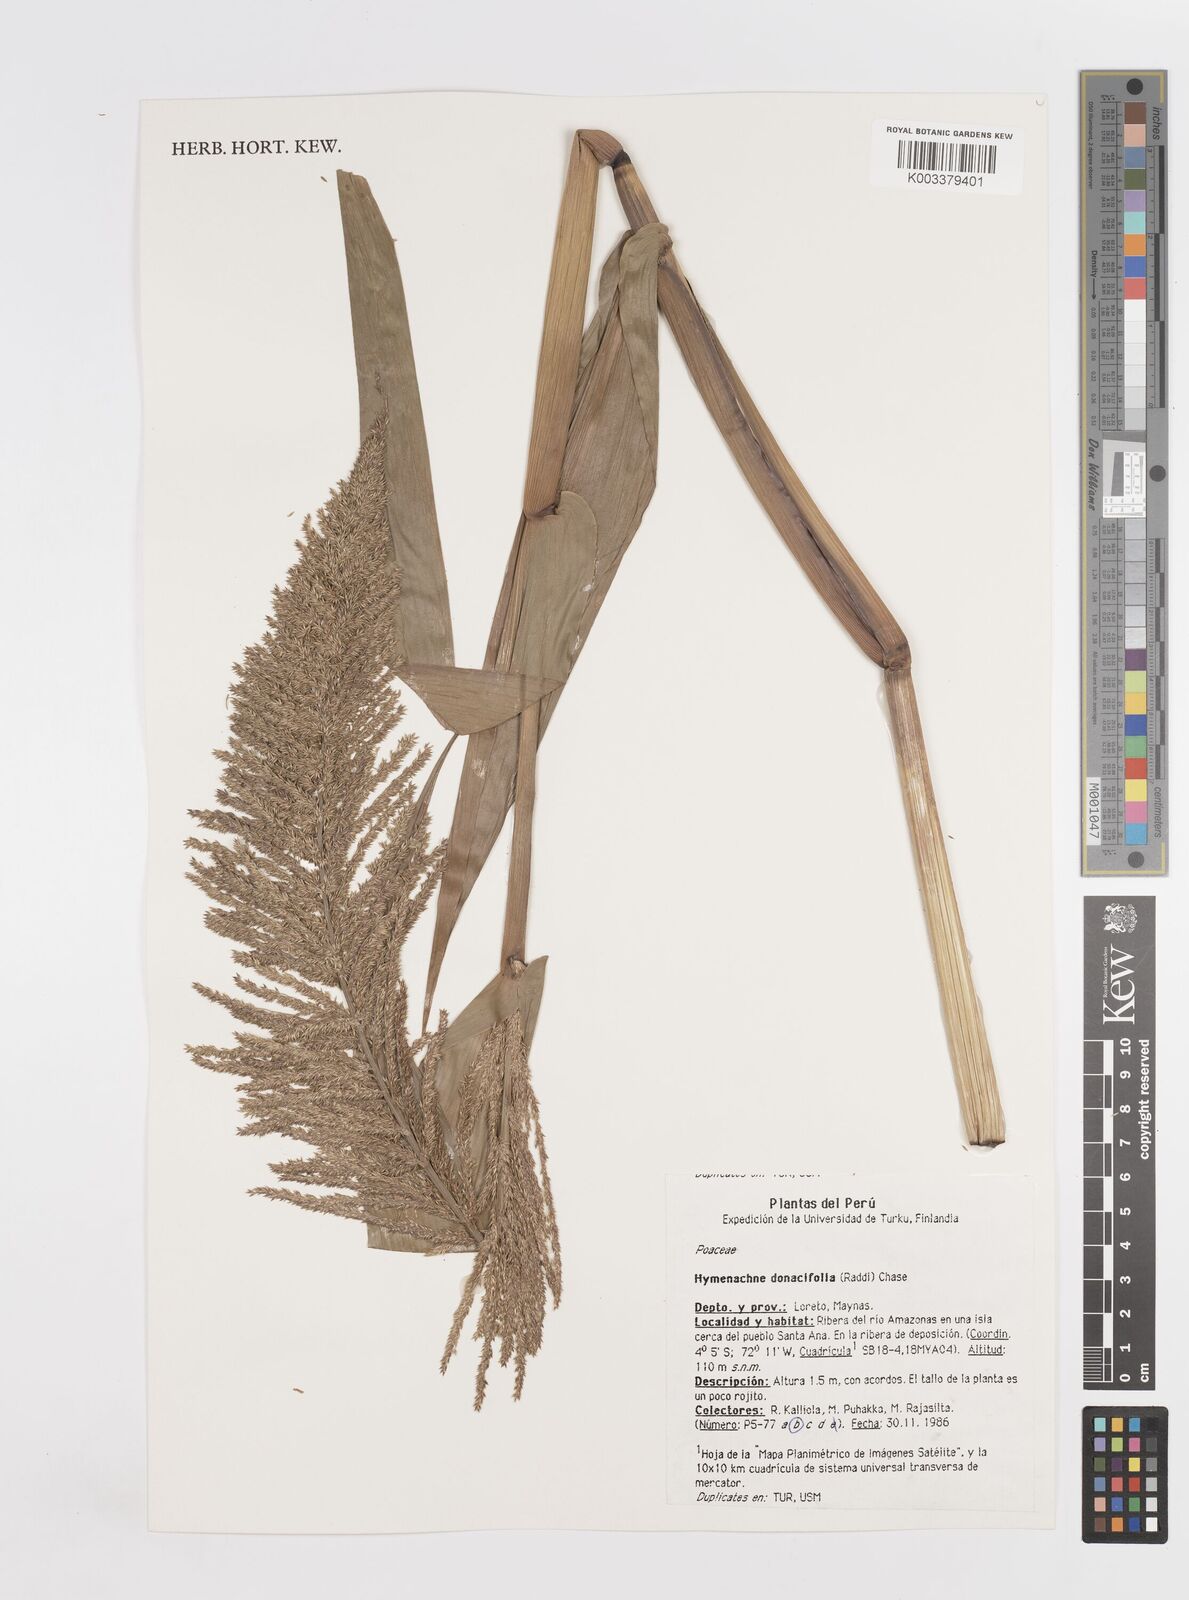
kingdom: Plantae
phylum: Tracheophyta
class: Liliopsida
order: Poales
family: Poaceae
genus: Hymenachne
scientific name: Hymenachne donacifolia
